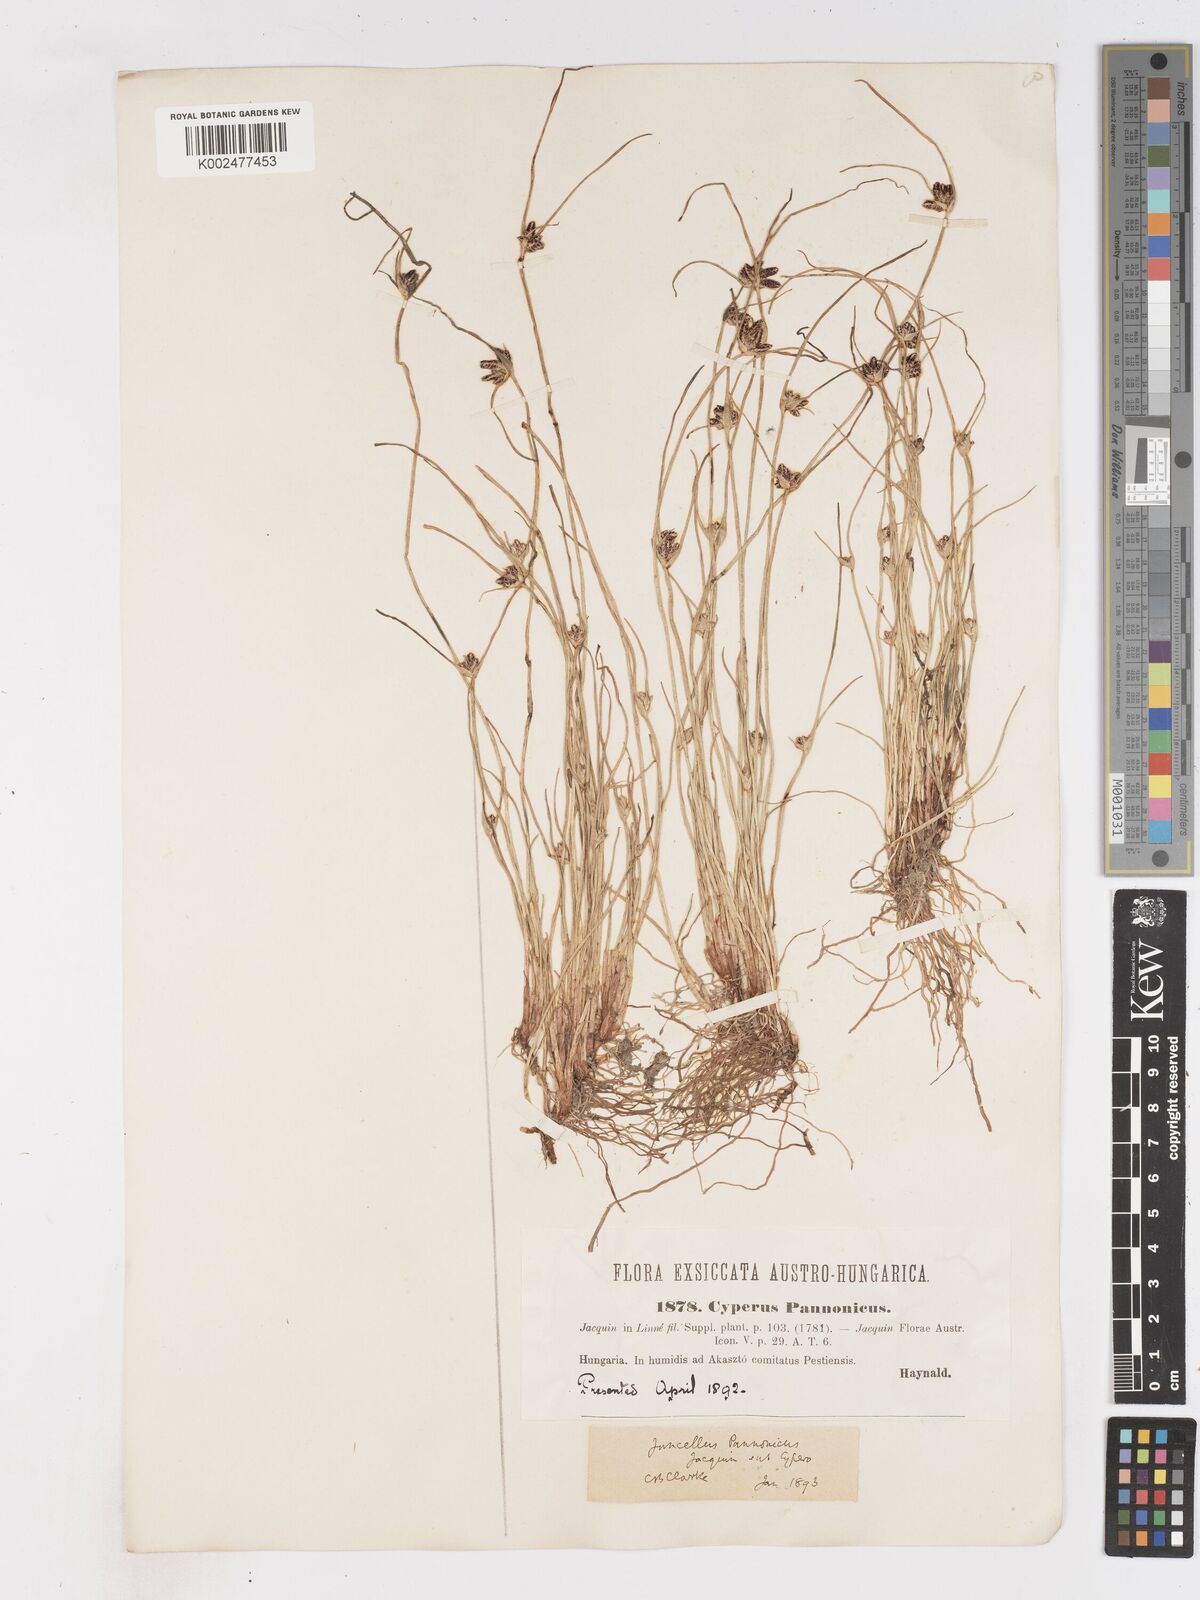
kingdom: Plantae
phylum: Tracheophyta
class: Liliopsida
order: Poales
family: Cyperaceae
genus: Cyperus
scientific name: Cyperus pannonicus
